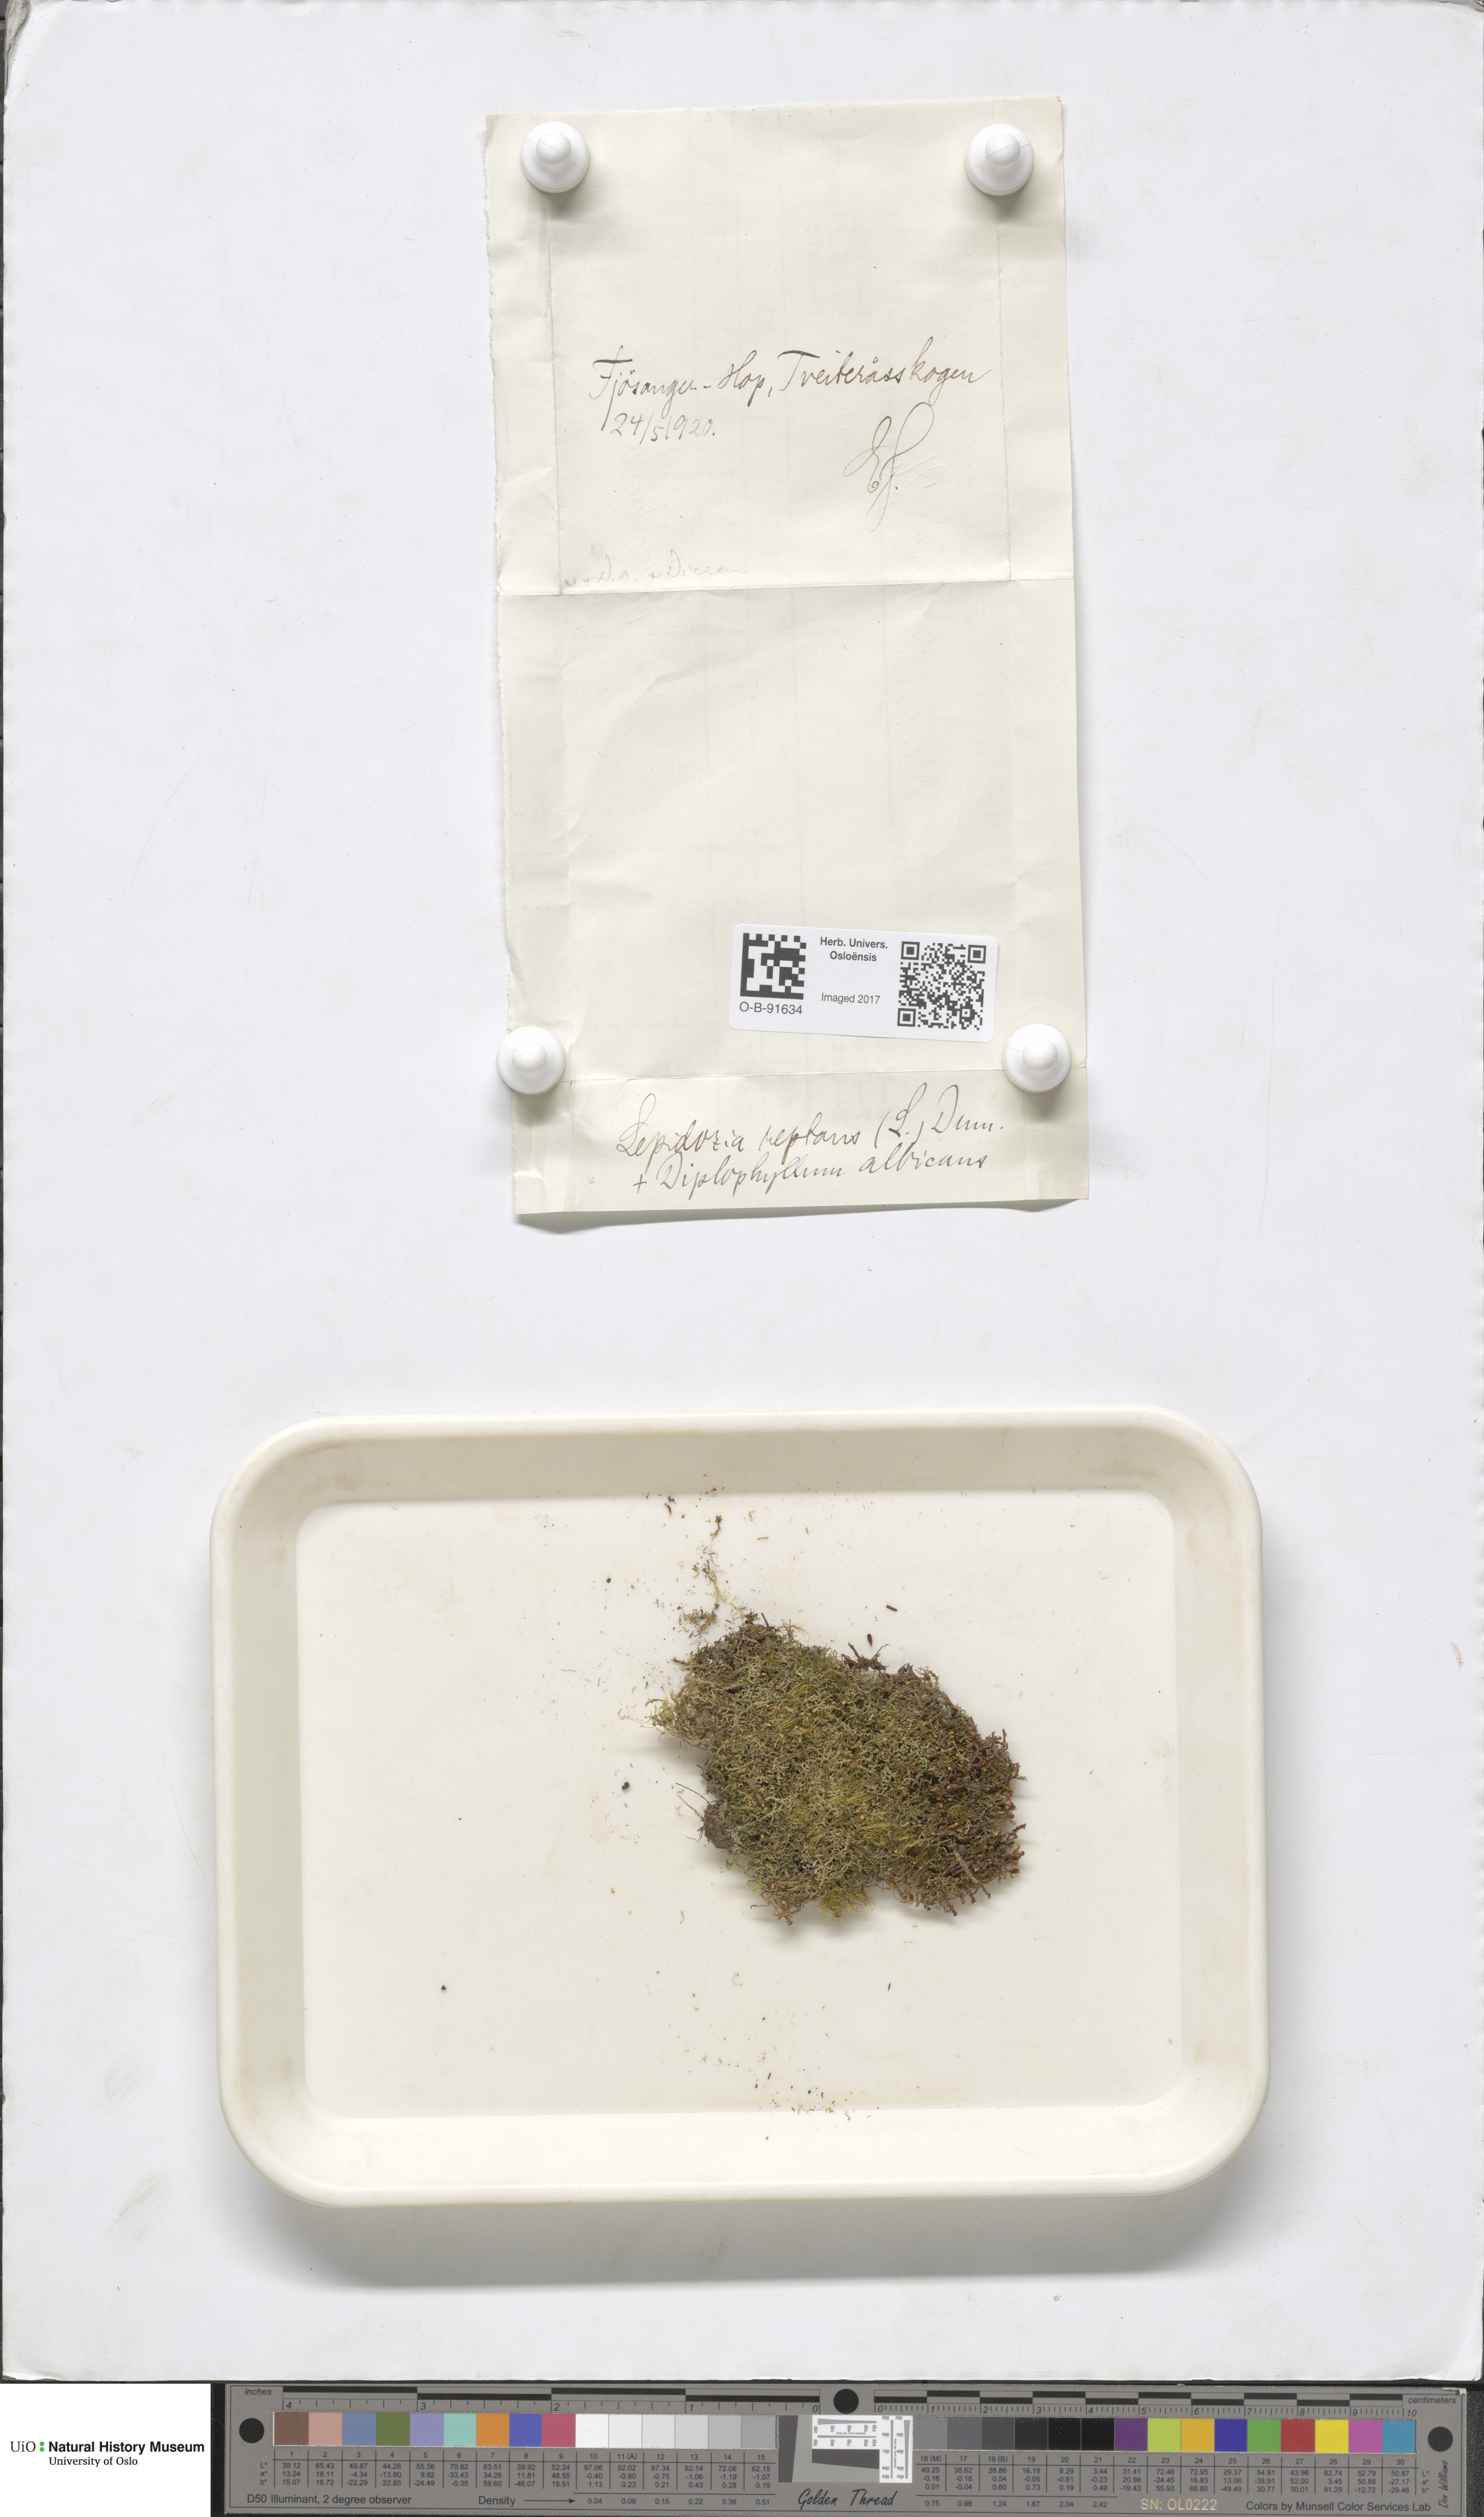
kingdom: Plantae
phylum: Marchantiophyta
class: Jungermanniopsida
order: Jungermanniales
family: Lepidoziaceae
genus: Lepidozia
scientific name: Lepidozia reptans
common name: Creeping fingerwort
